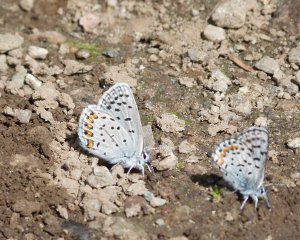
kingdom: Animalia
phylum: Arthropoda
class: Insecta
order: Lepidoptera
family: Lycaenidae
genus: Plebejus
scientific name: Plebejus lupini
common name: Lupine Blue
